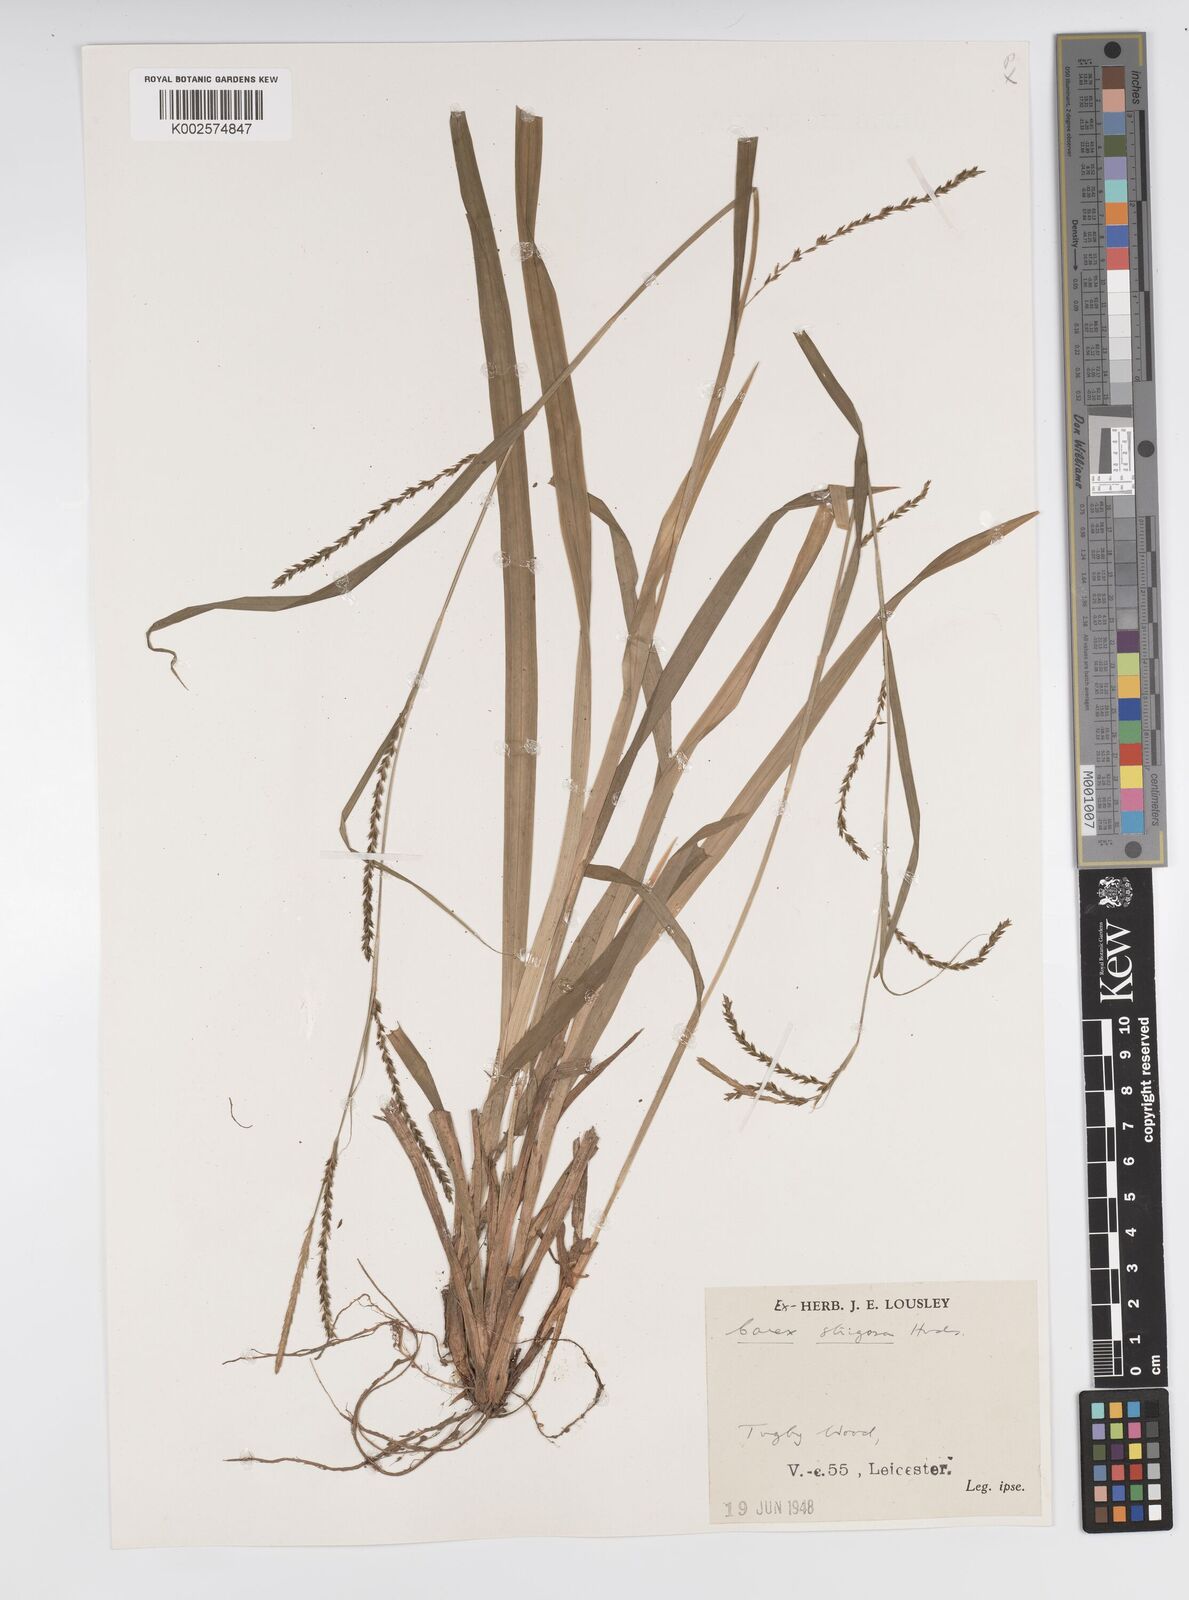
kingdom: Plantae
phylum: Tracheophyta
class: Liliopsida
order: Poales
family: Cyperaceae
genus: Carex
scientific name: Carex strigosa
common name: Thin-spiked wood-sedge
